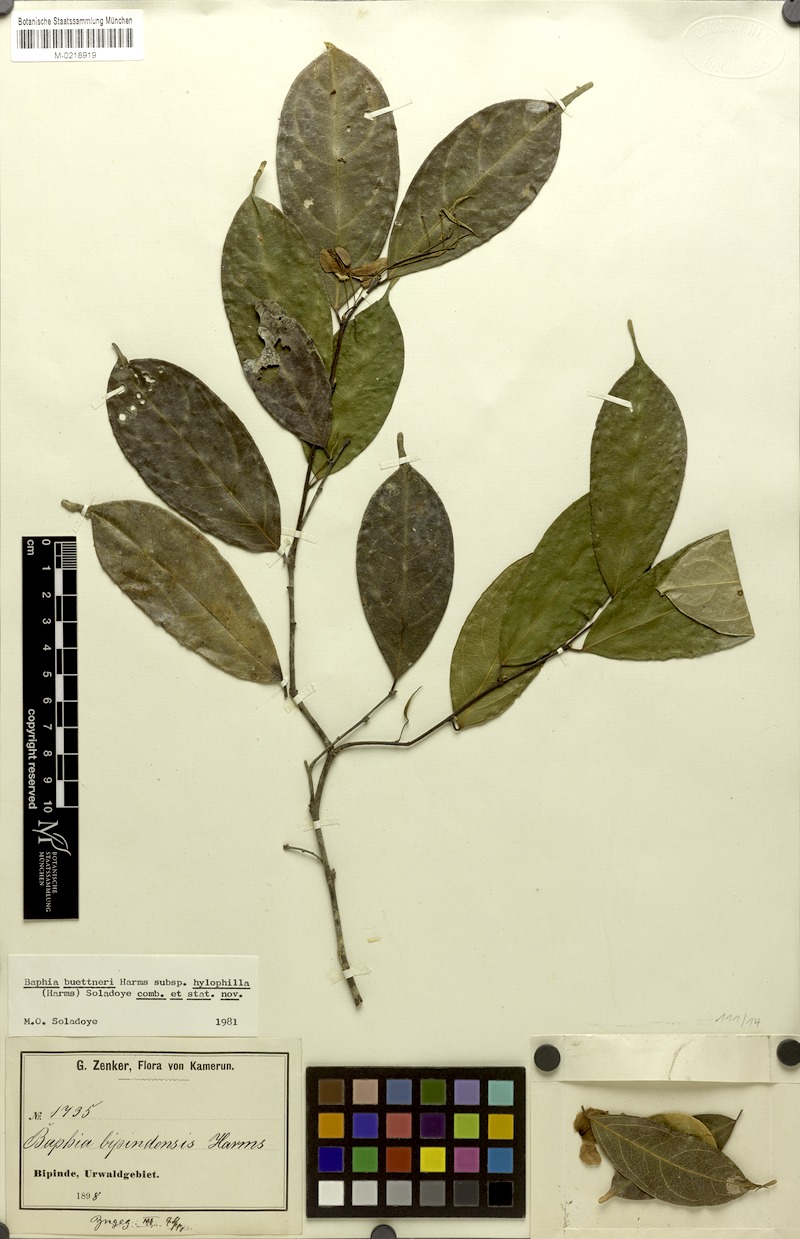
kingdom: Plantae
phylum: Tracheophyta
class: Magnoliopsida
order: Fabales
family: Fabaceae
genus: Baphia
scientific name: Baphia buettneri
